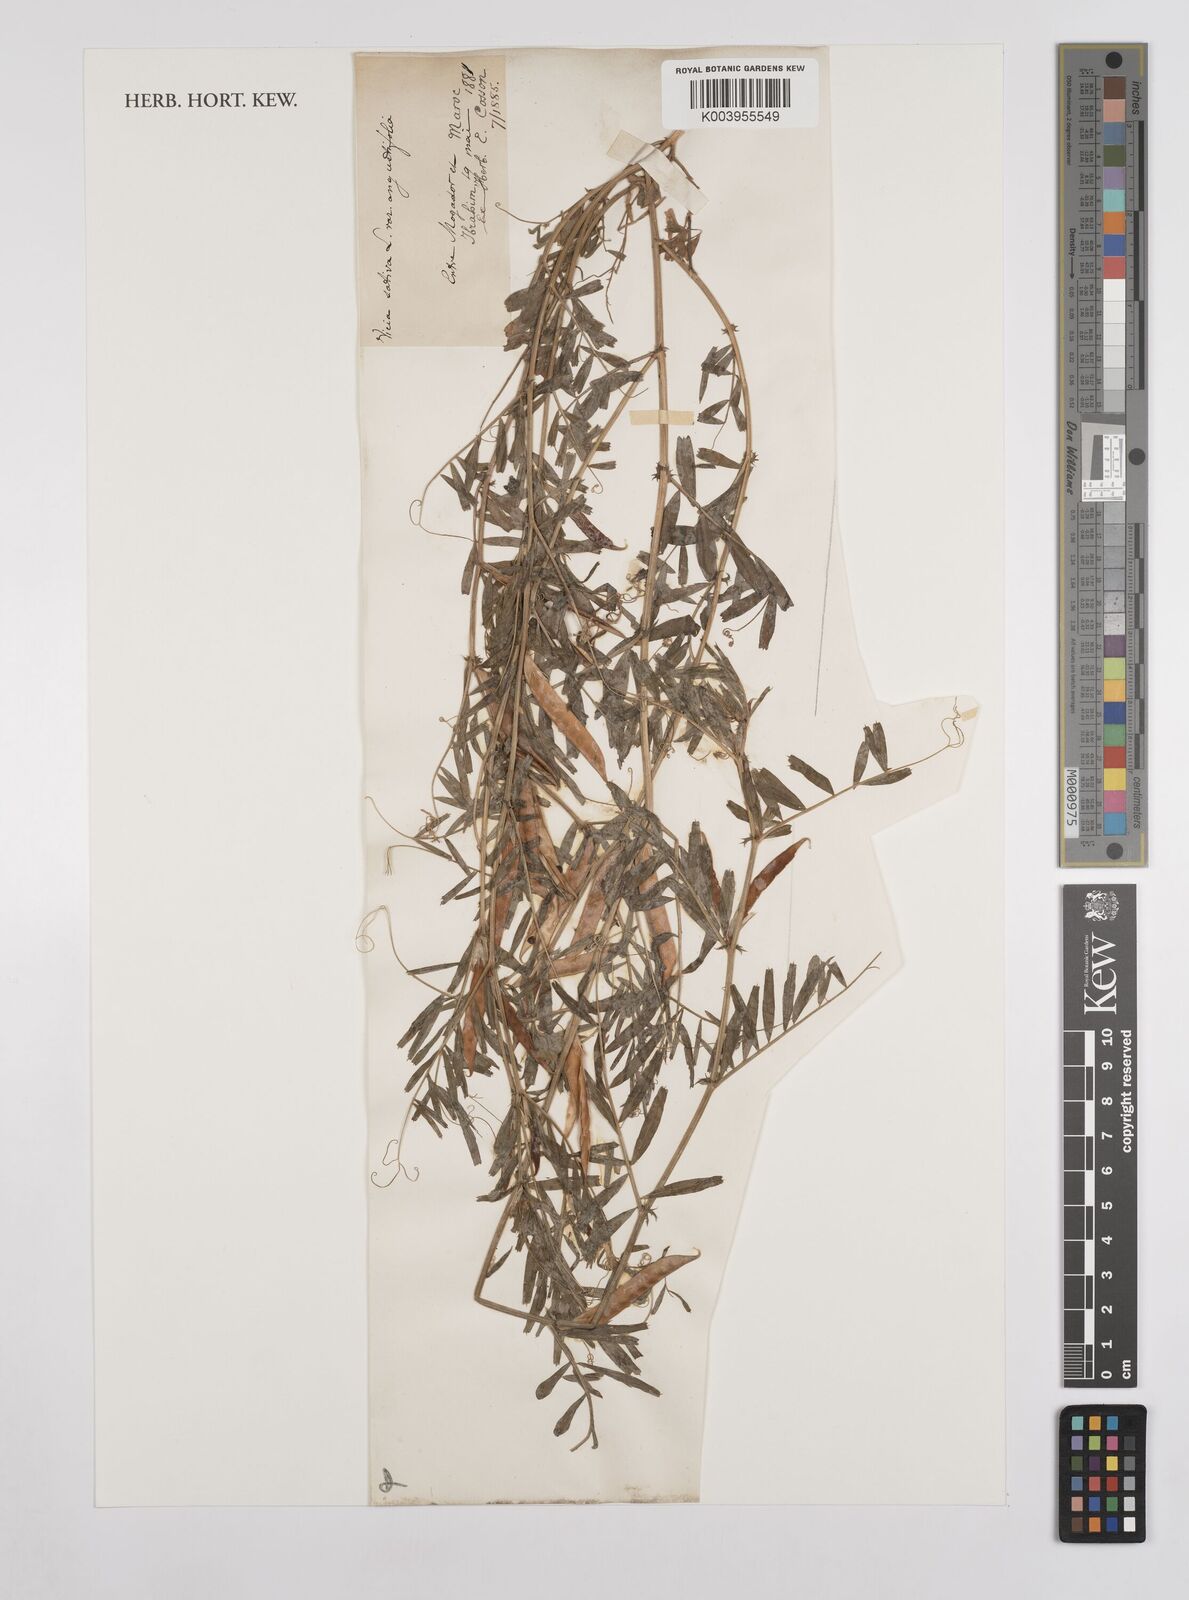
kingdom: Plantae
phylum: Tracheophyta
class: Magnoliopsida
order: Fabales
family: Fabaceae
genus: Vicia
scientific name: Vicia sativa
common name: Garden vetch
